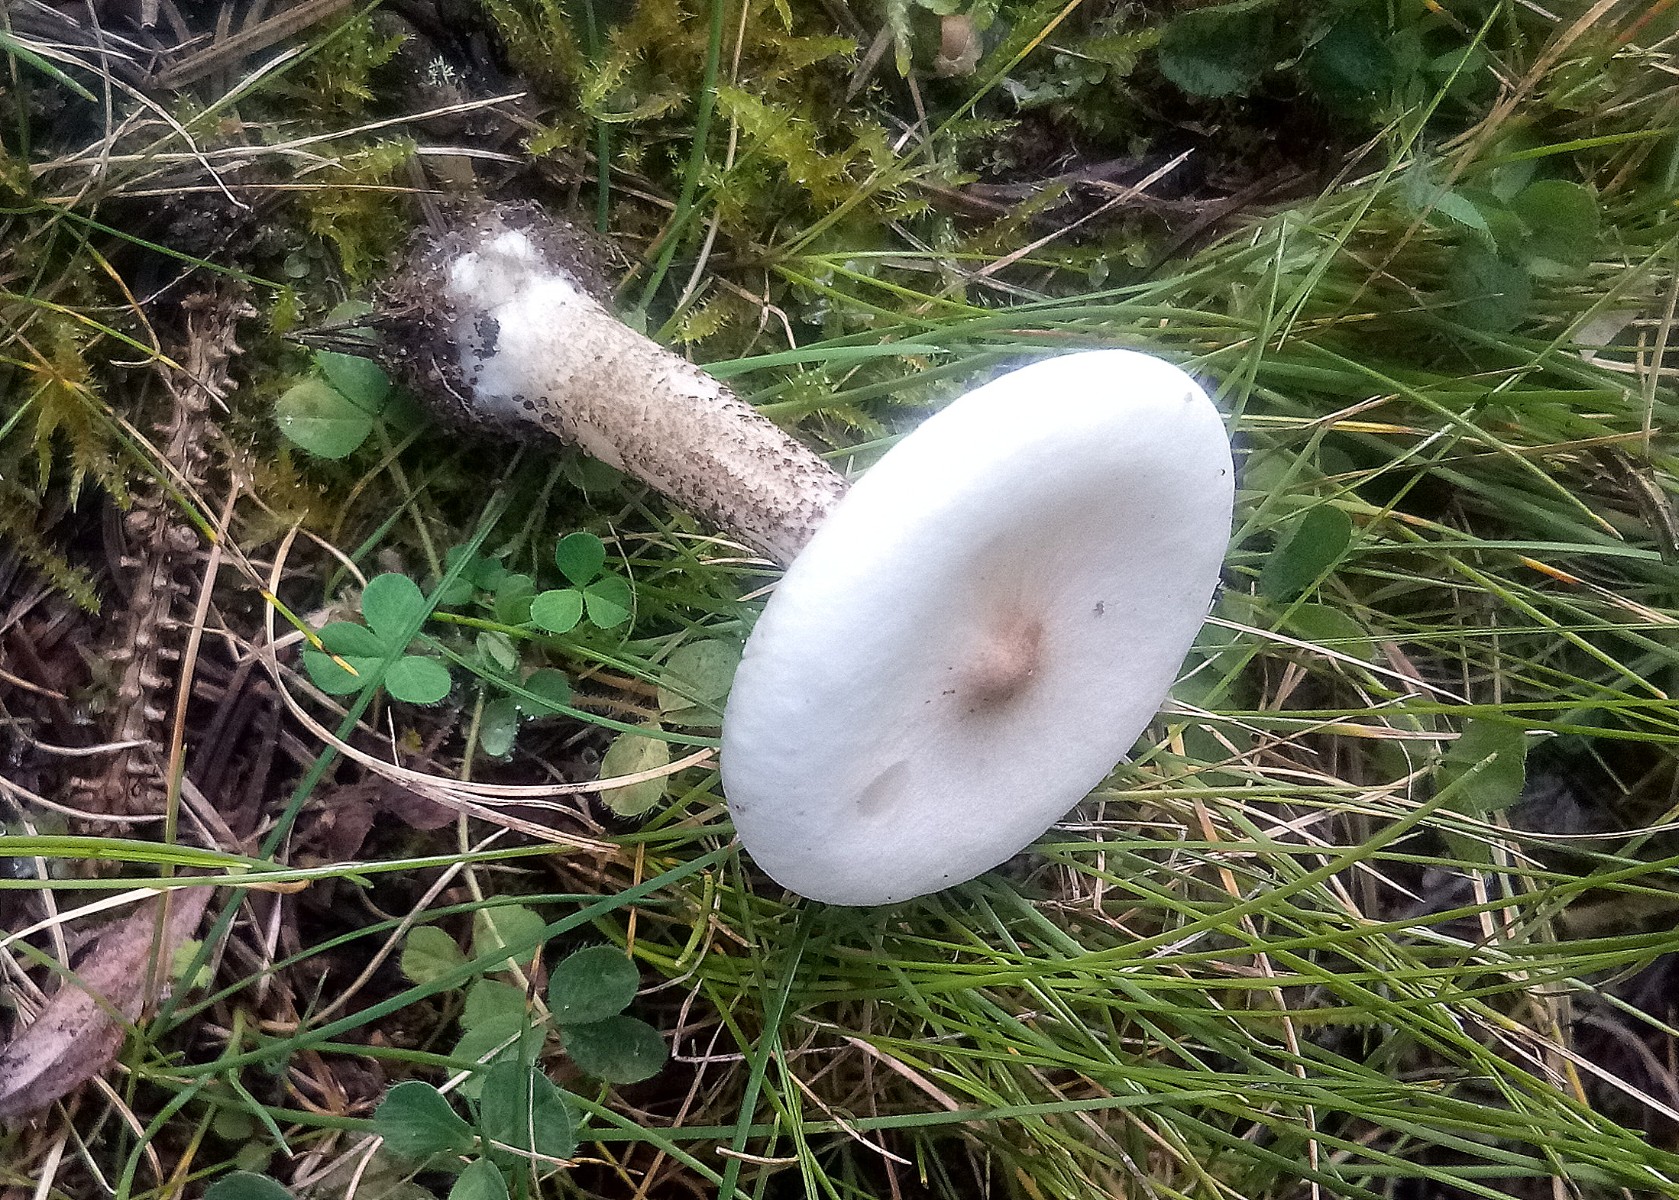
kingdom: Fungi
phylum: Basidiomycota
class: Agaricomycetes
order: Agaricales
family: Tricholomataceae
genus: Melanoleuca
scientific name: Melanoleuca verrucipes
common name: rufodet munkehat
